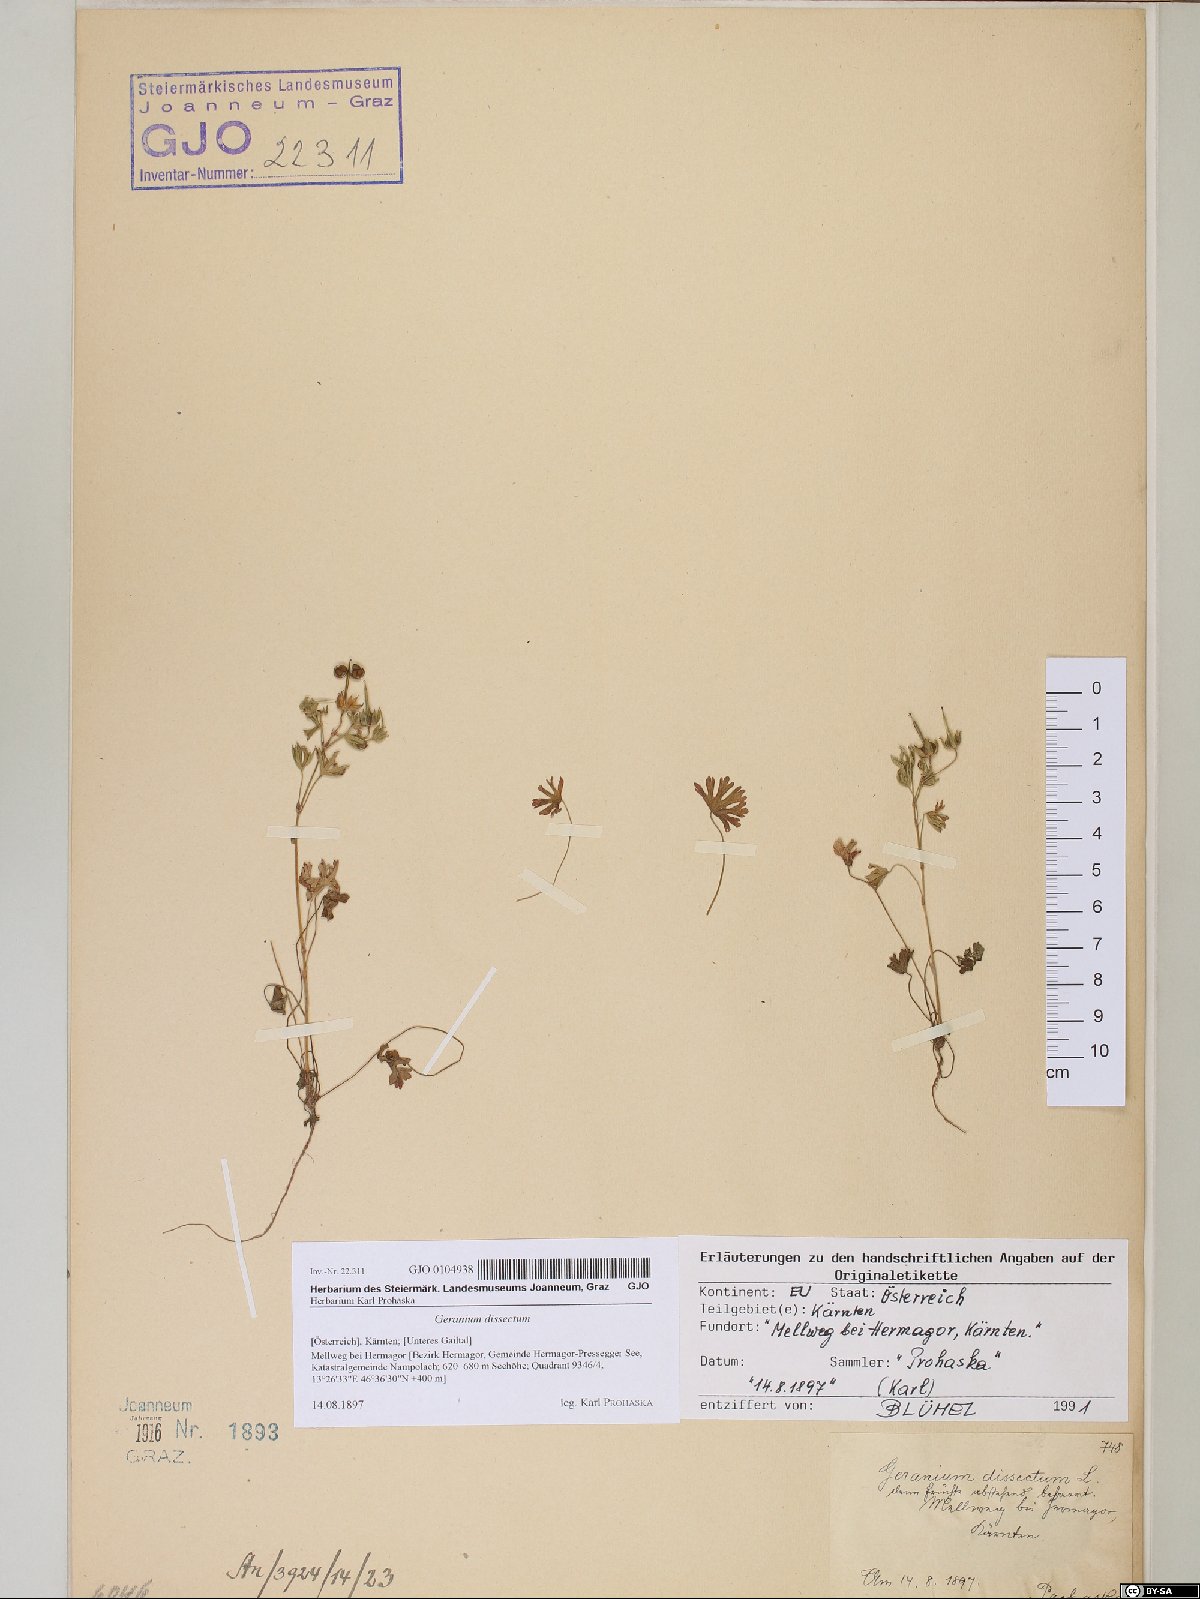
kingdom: Plantae
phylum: Tracheophyta
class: Magnoliopsida
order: Geraniales
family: Geraniaceae
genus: Geranium
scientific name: Geranium dissectum
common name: Cut-leaved crane's-bill
